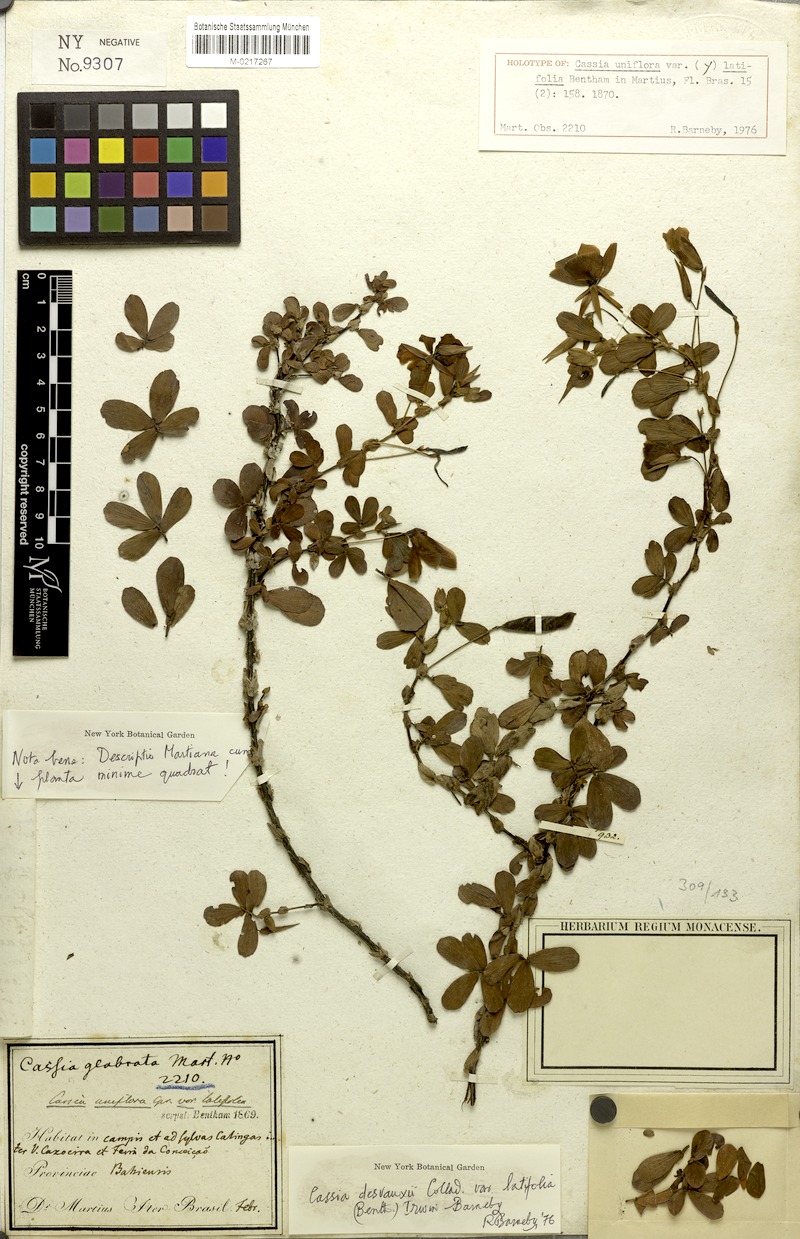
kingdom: Plantae
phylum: Tracheophyta
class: Magnoliopsida
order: Fabales
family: Fabaceae
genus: Chamaecrista
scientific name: Chamaecrista desvauxii
